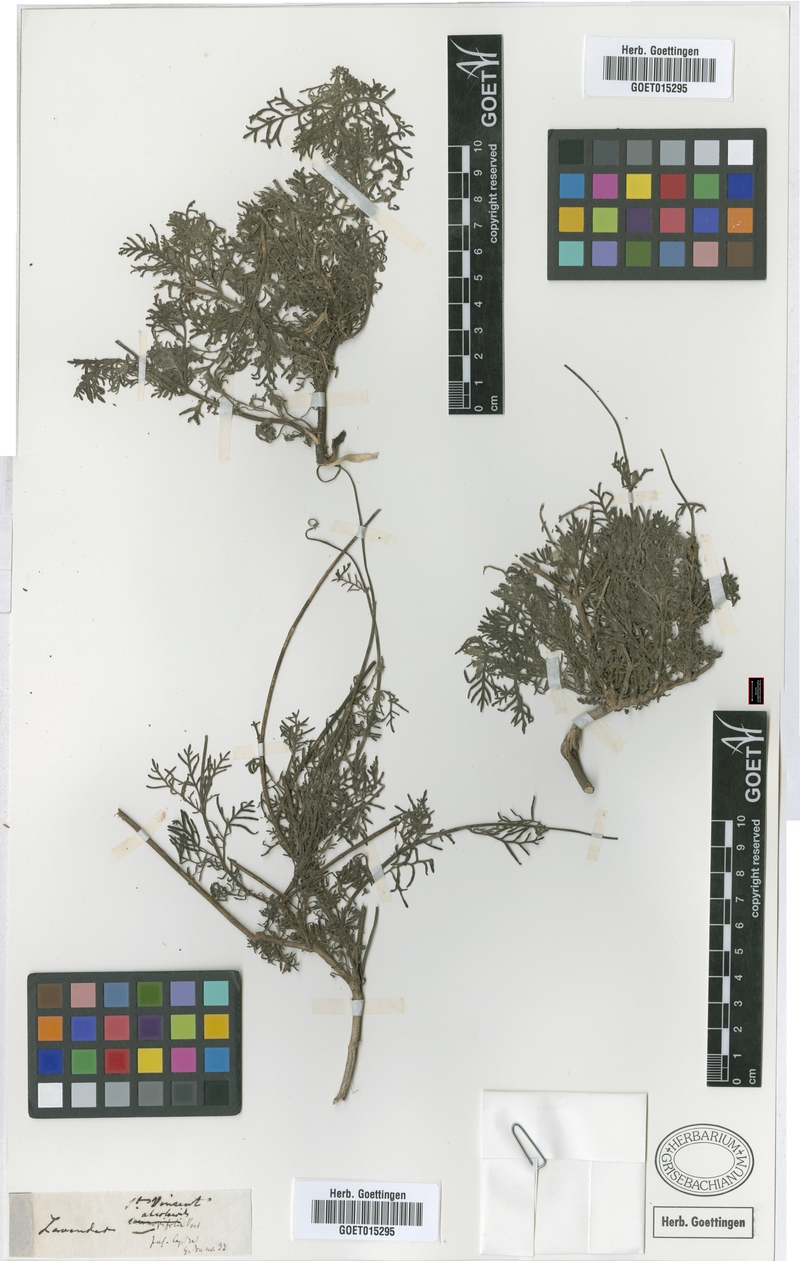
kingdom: Plantae
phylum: Tracheophyta
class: Magnoliopsida
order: Lamiales
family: Lamiaceae
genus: Lavandula
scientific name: Lavandula canariensis
